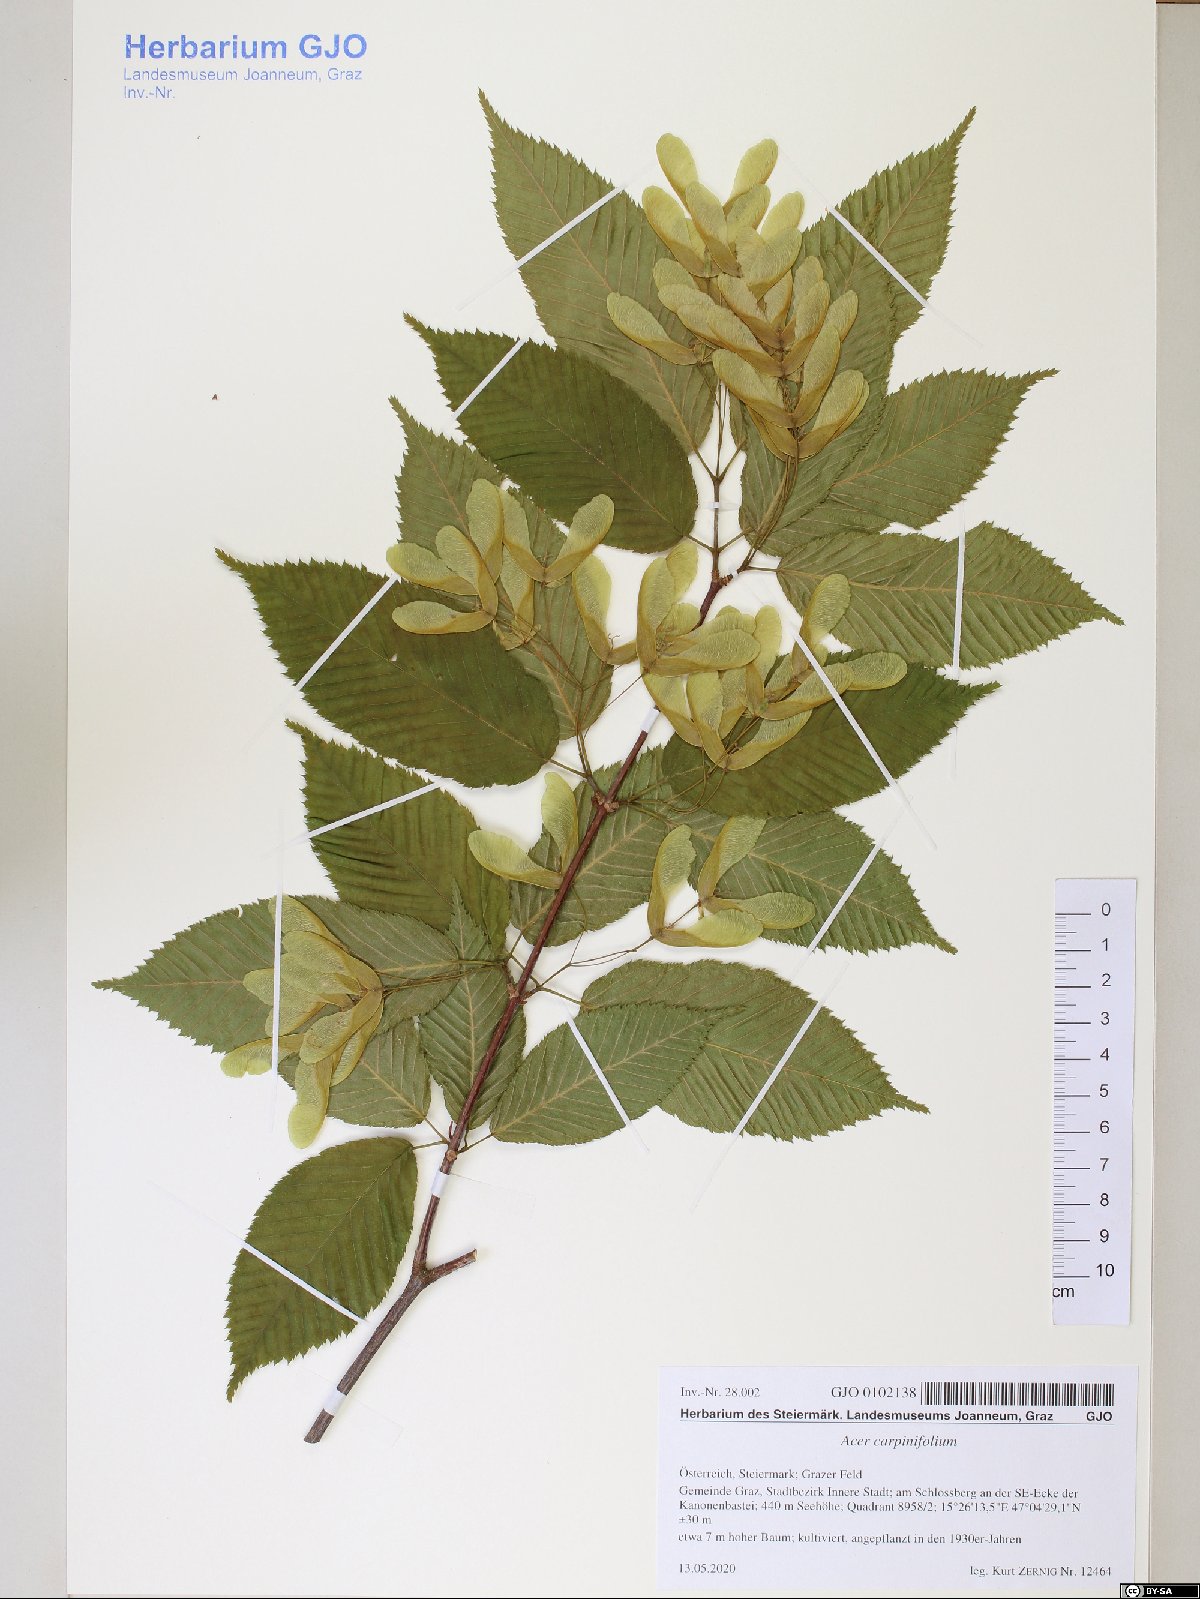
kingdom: Plantae
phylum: Tracheophyta
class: Magnoliopsida
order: Sapindales
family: Sapindaceae
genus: Acer
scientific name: Acer carpinifolium
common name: Hornbeam maple
